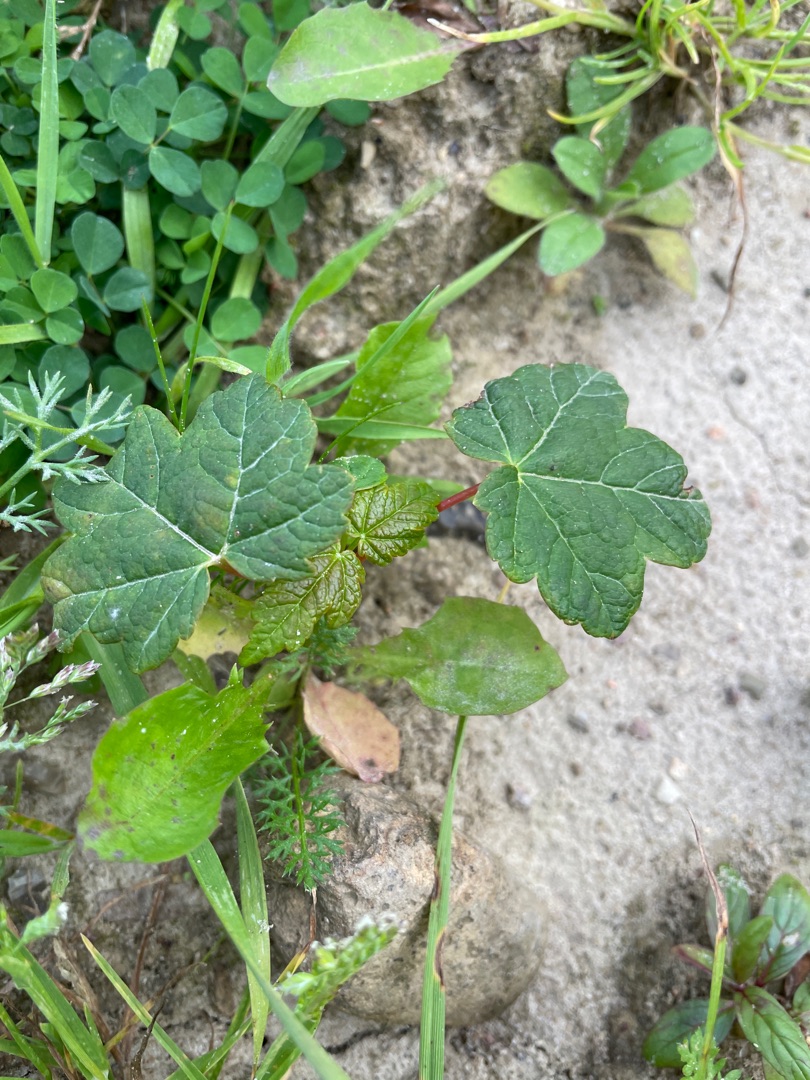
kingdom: Plantae
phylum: Tracheophyta
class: Magnoliopsida
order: Sapindales
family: Sapindaceae
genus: Acer
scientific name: Acer pseudoplatanus
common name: Ahorn
